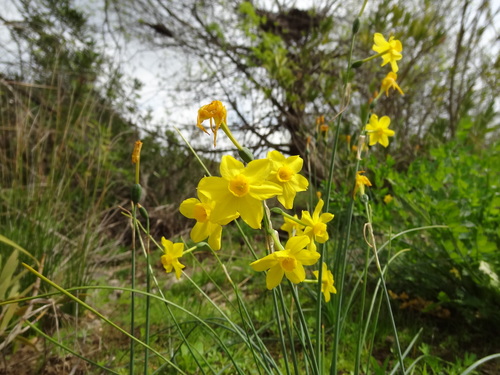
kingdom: Plantae
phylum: Tracheophyta
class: Liliopsida
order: Asparagales
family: Amaryllidaceae
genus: Narcissus
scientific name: Narcissus jonquilla
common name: Jonquil
